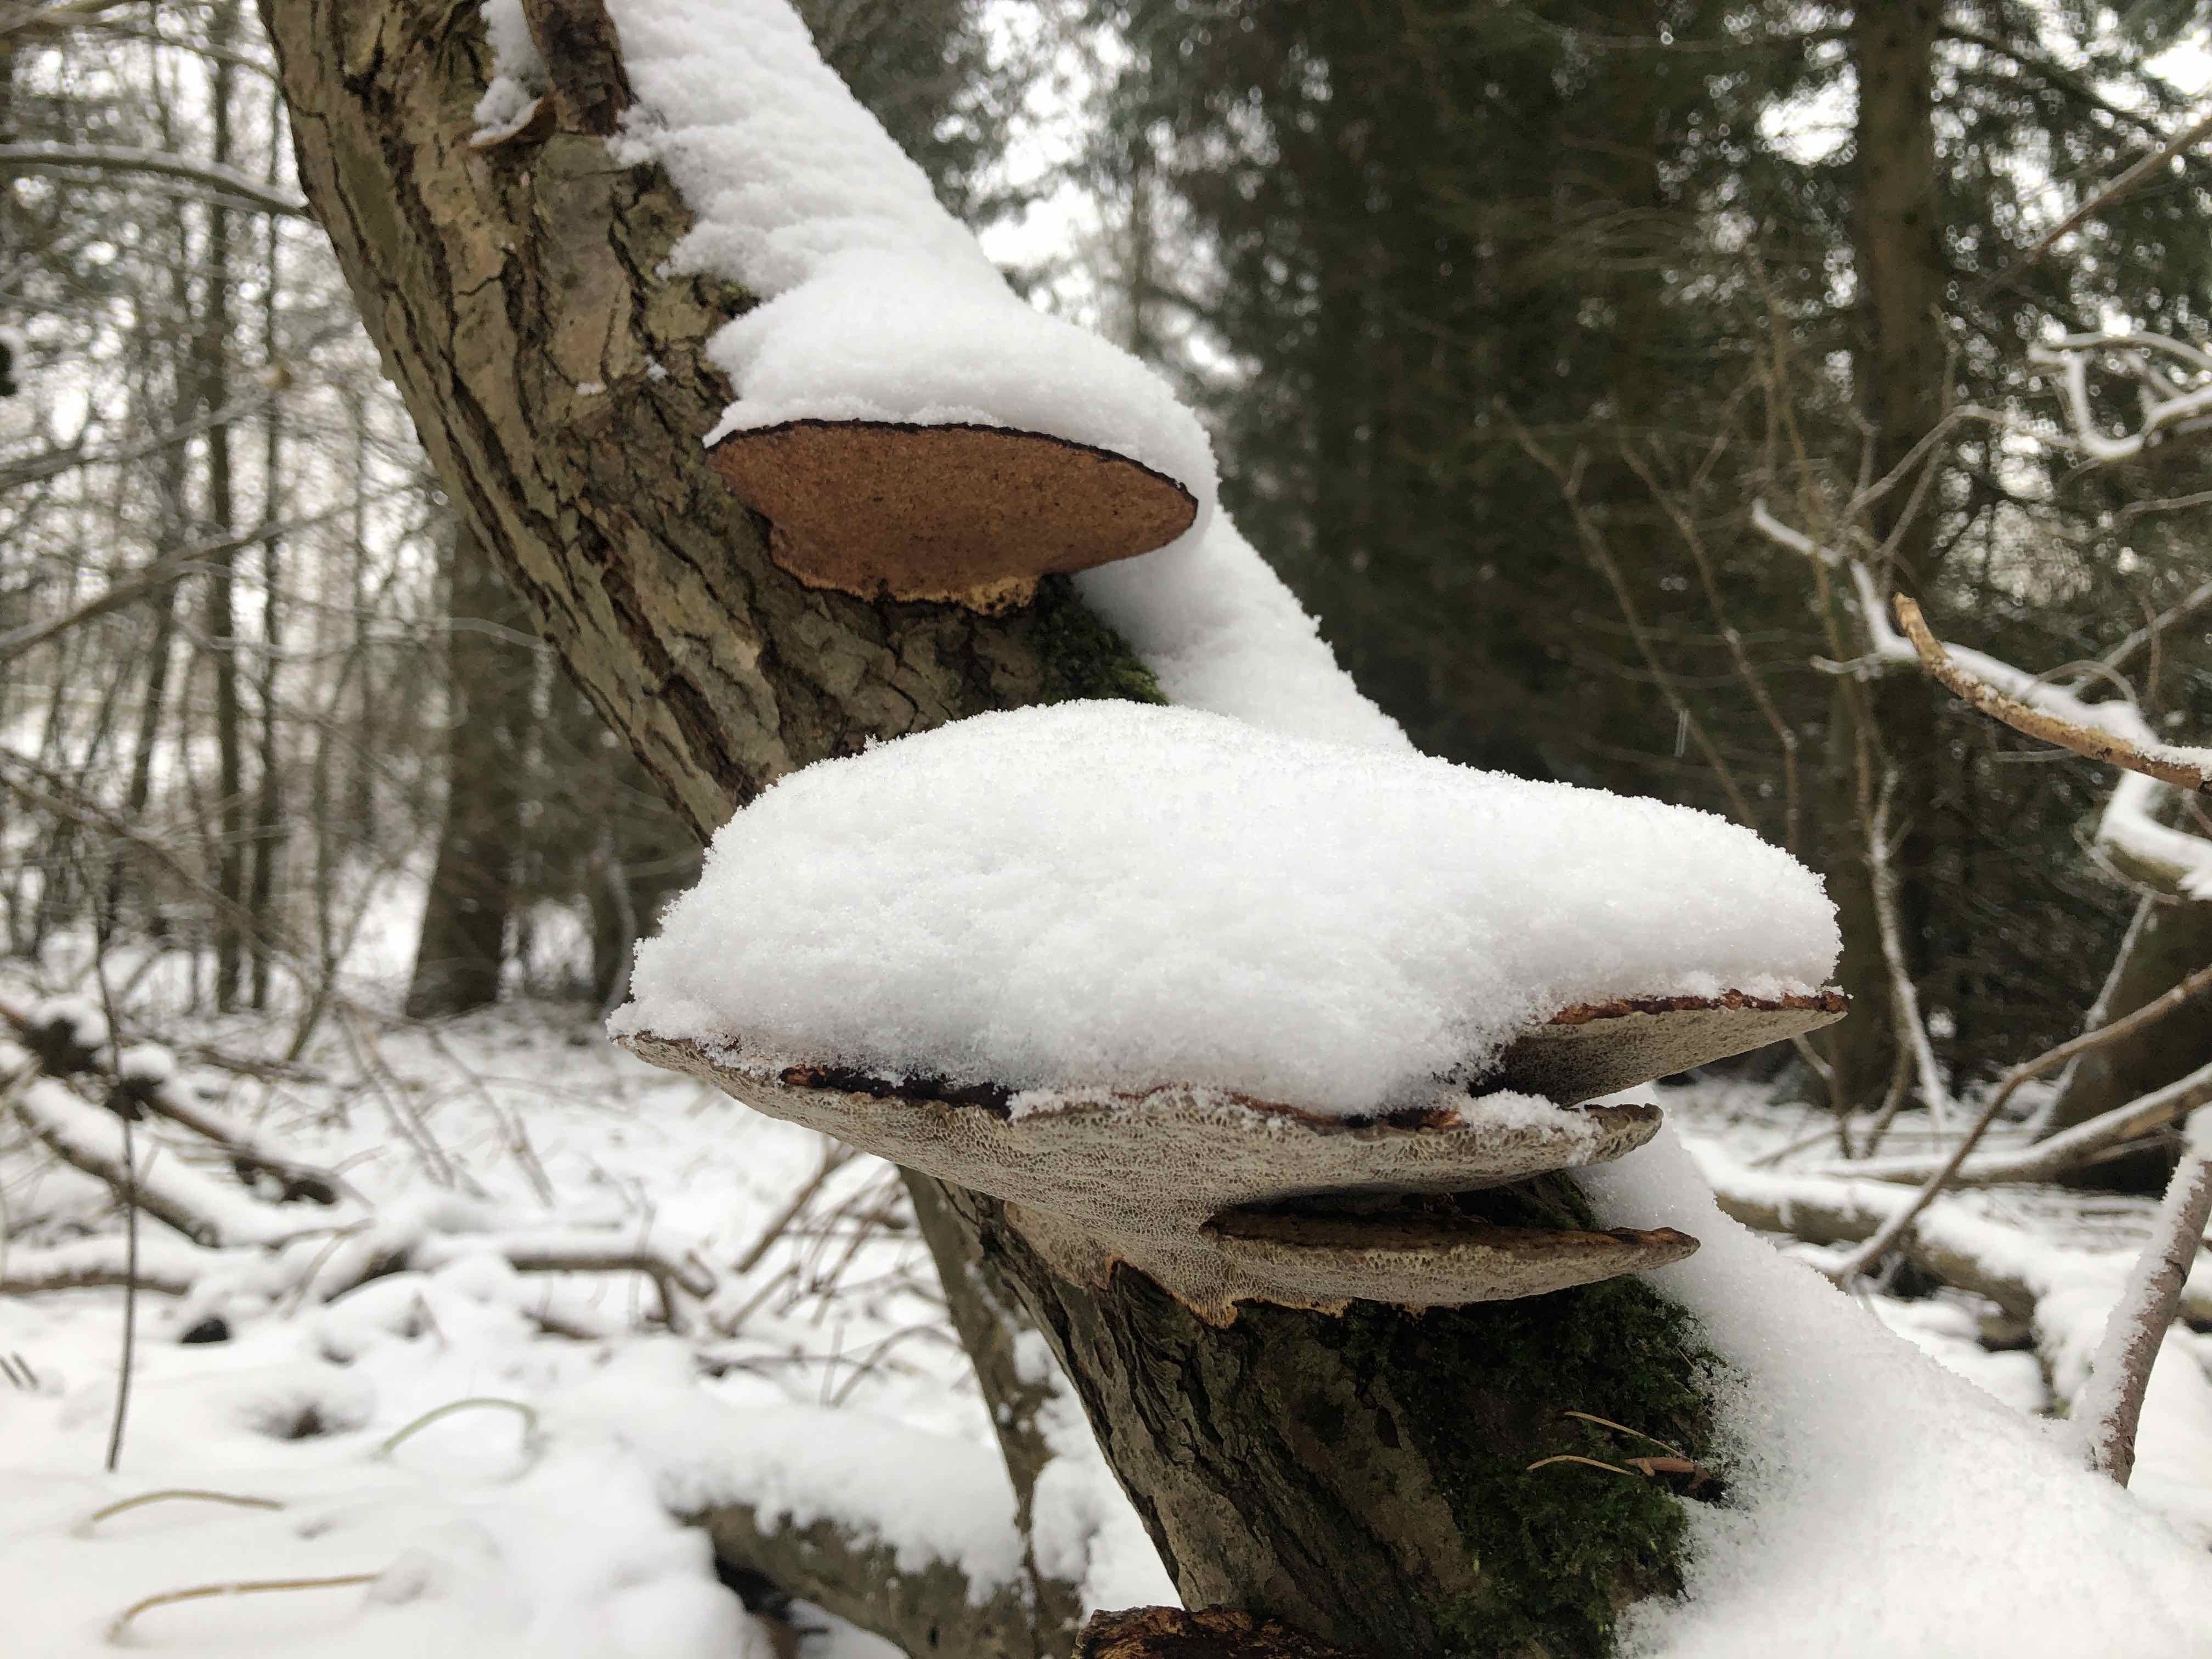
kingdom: Fungi
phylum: Basidiomycota
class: Agaricomycetes
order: Polyporales
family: Polyporaceae
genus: Daedaleopsis
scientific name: Daedaleopsis confragosa
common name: rødmende læderporesvamp
